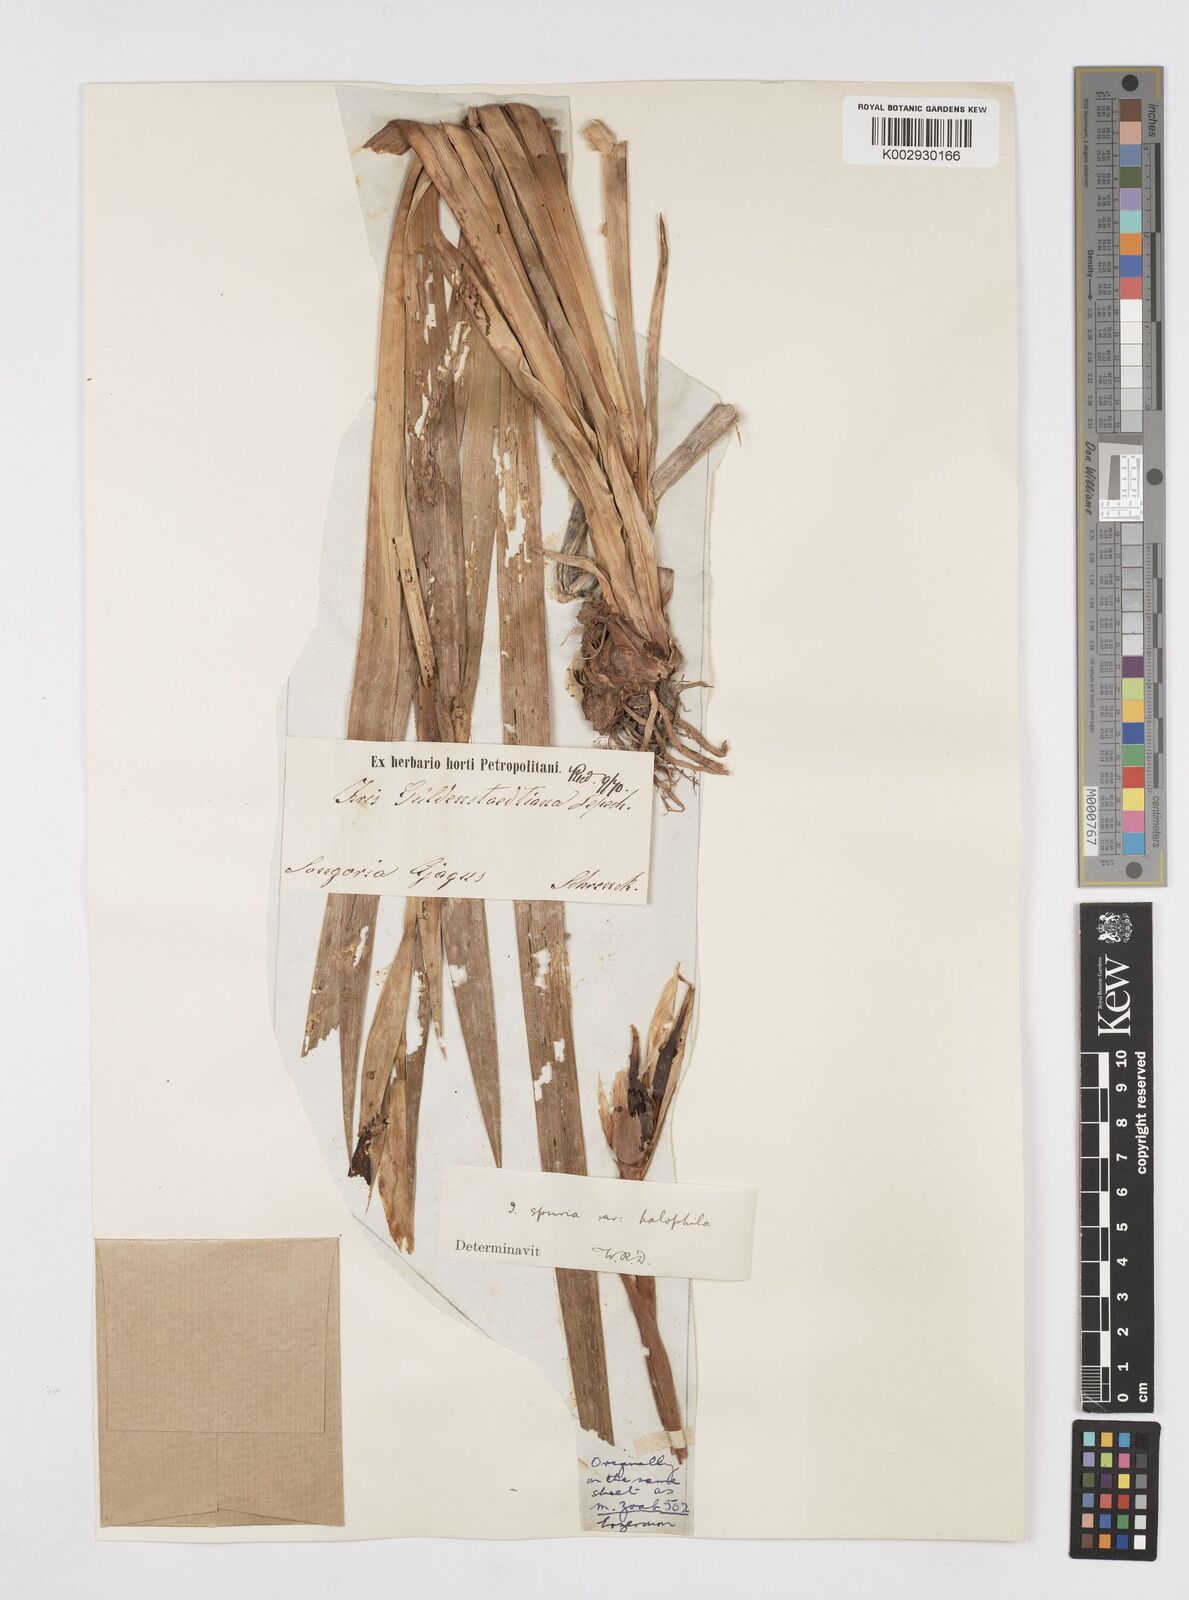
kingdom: Plantae
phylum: Tracheophyta
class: Liliopsida
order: Asparagales
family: Iridaceae
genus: Iris
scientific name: Iris halophila
